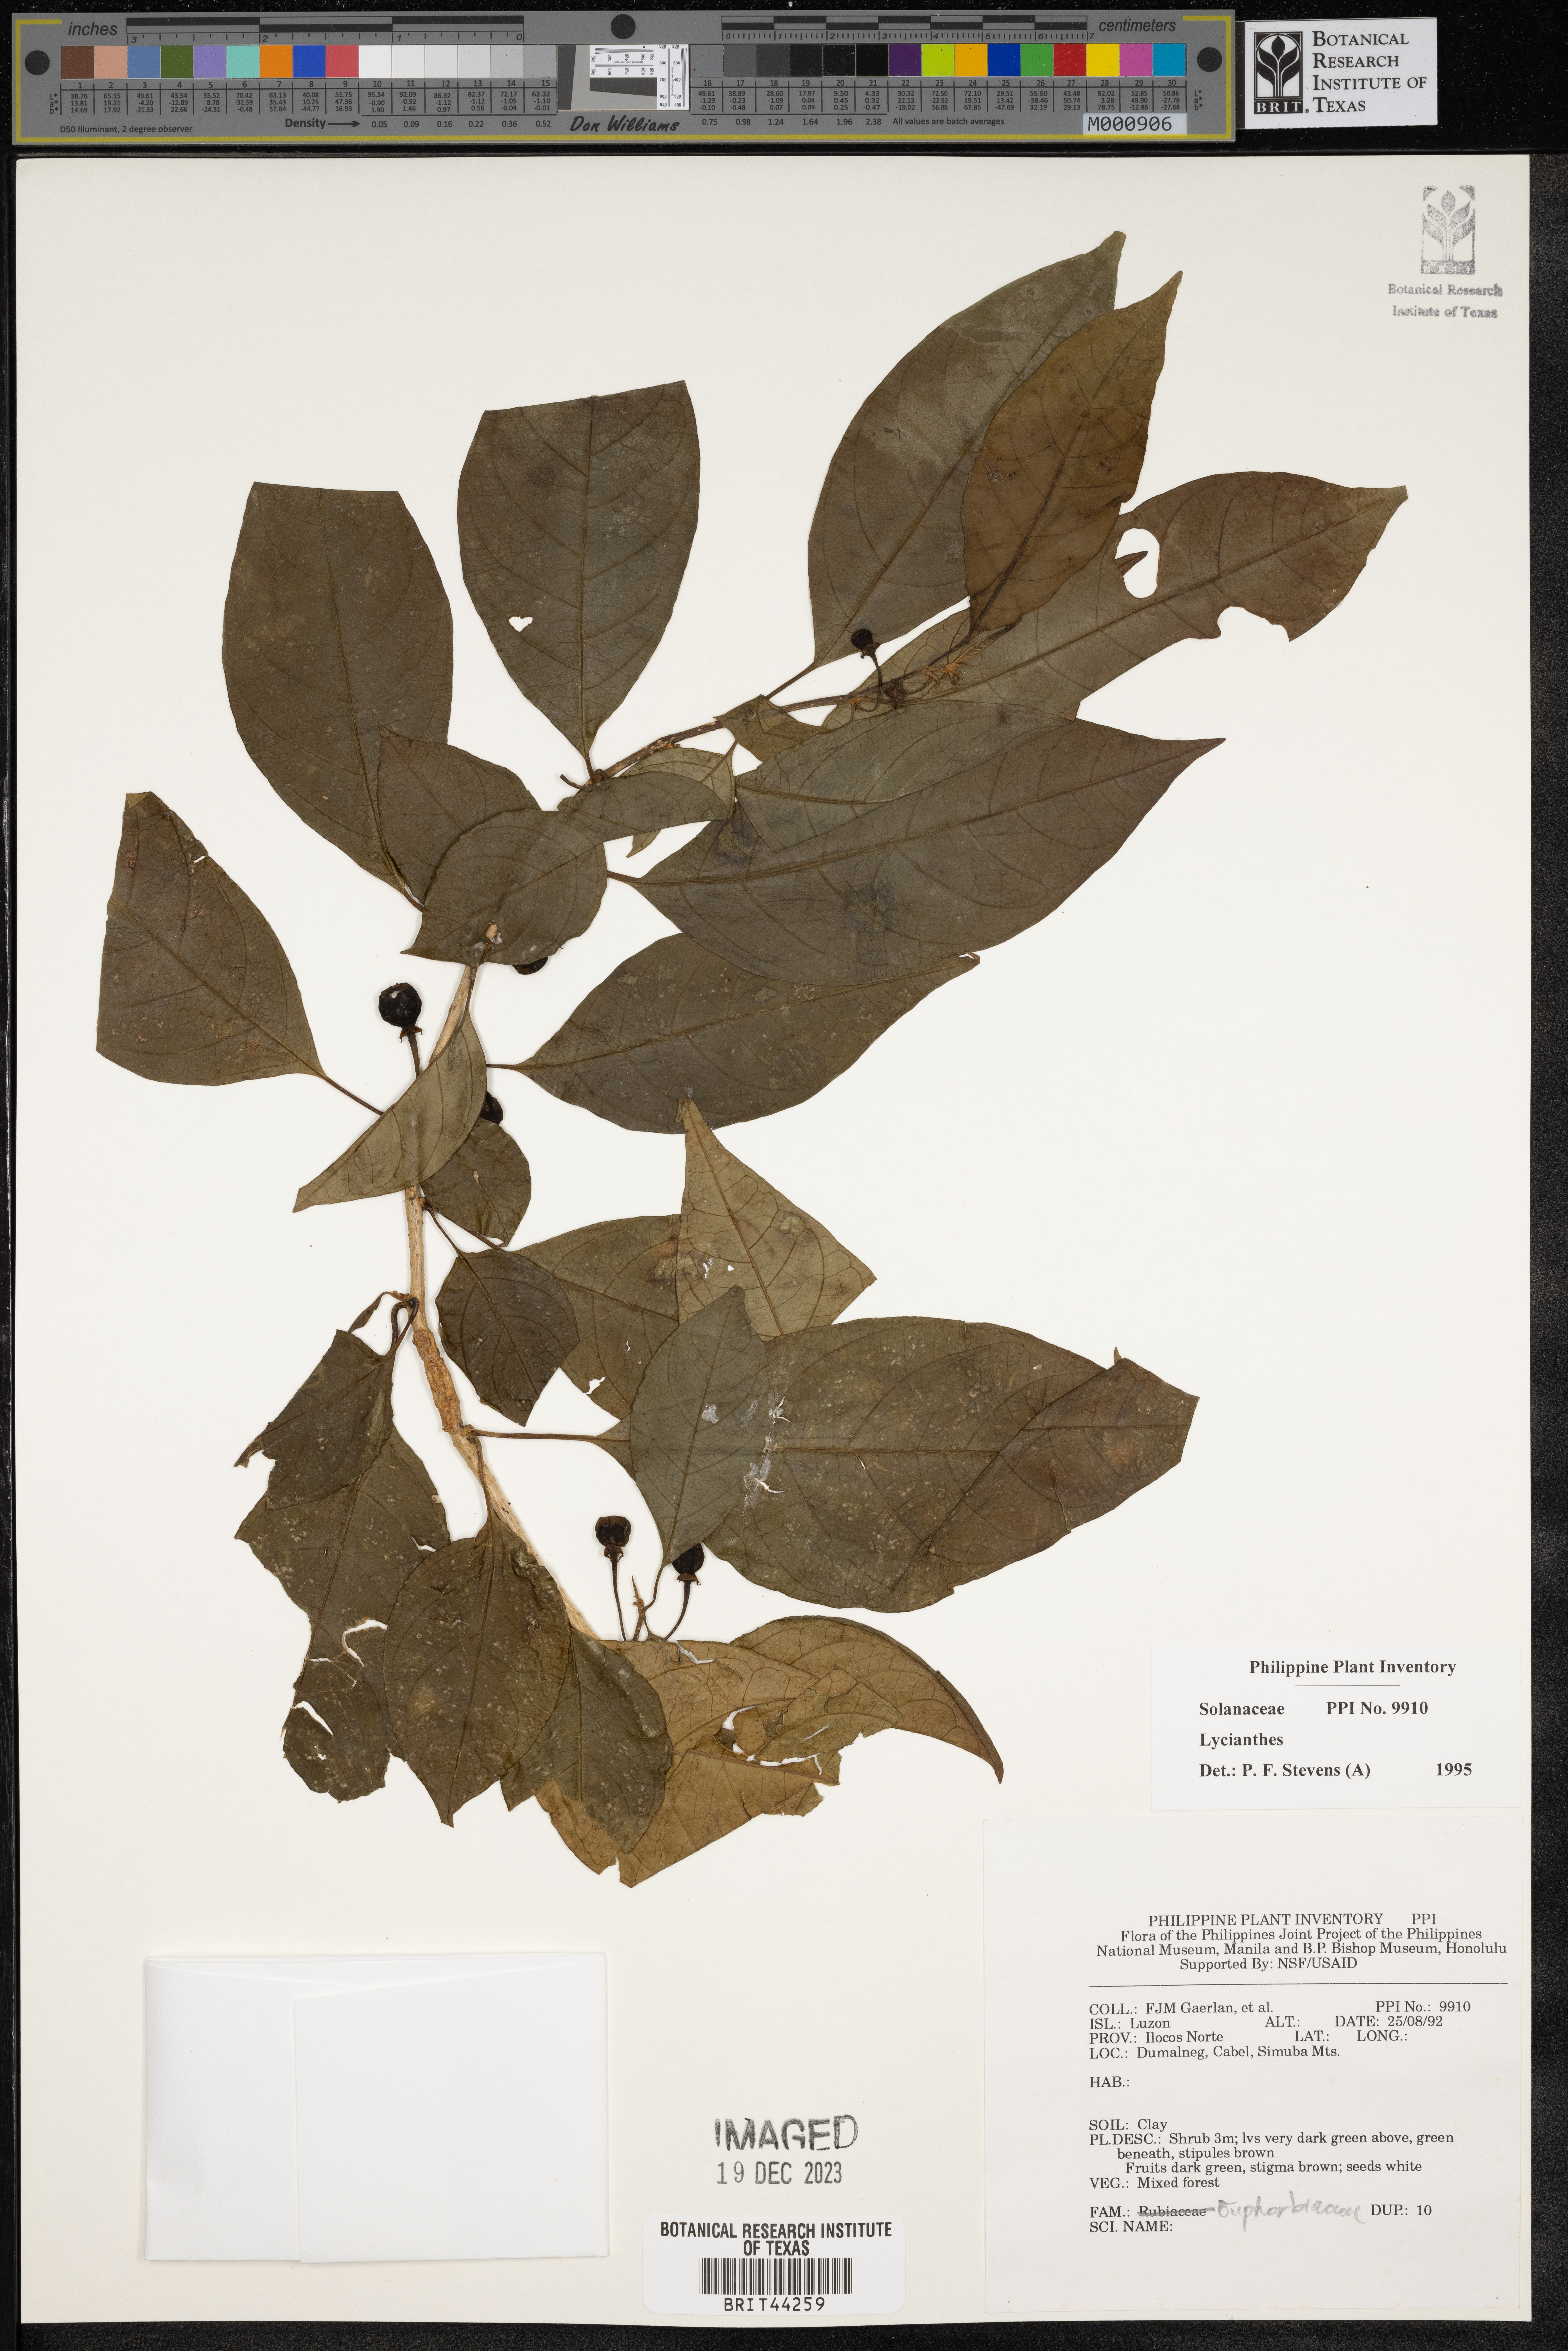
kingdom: Plantae
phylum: Tracheophyta
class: Magnoliopsida
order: Solanales
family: Solanaceae
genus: Lycianthes
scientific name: Lycianthes
